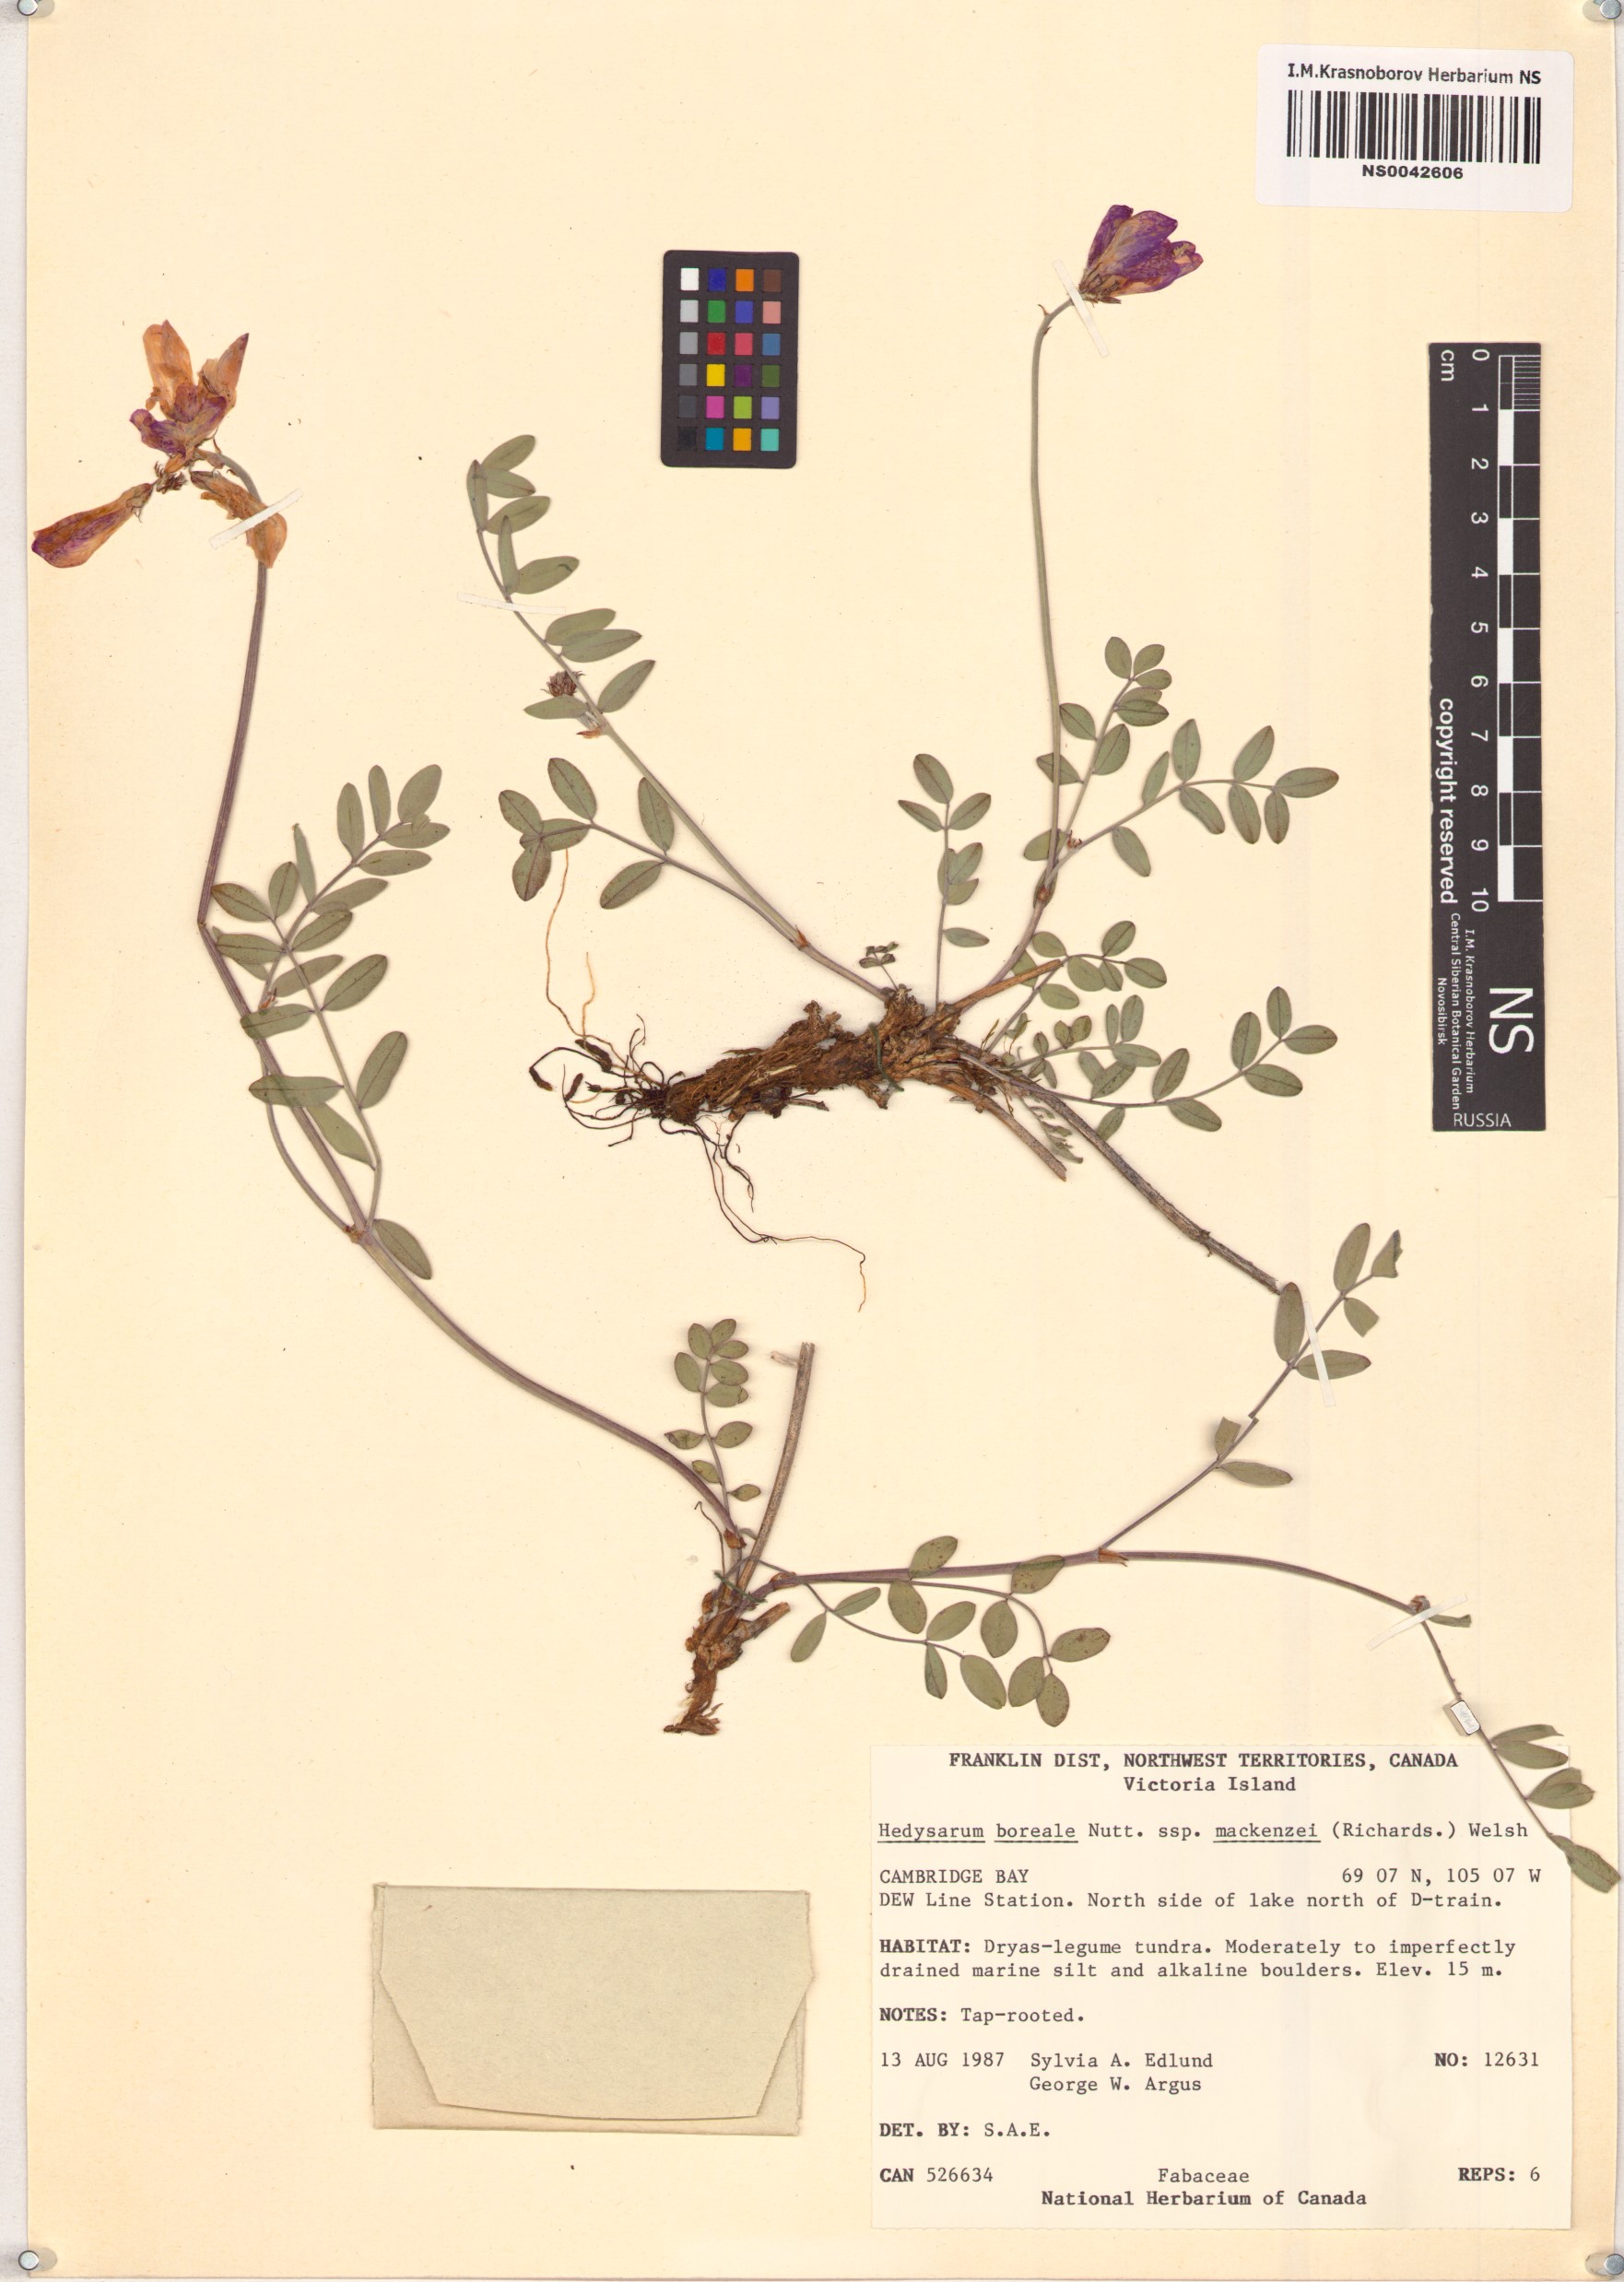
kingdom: Plantae
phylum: Tracheophyta
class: Magnoliopsida
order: Fabales
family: Fabaceae
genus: Hedysarum
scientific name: Hedysarum boreale
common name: Northern sweet-vetch
